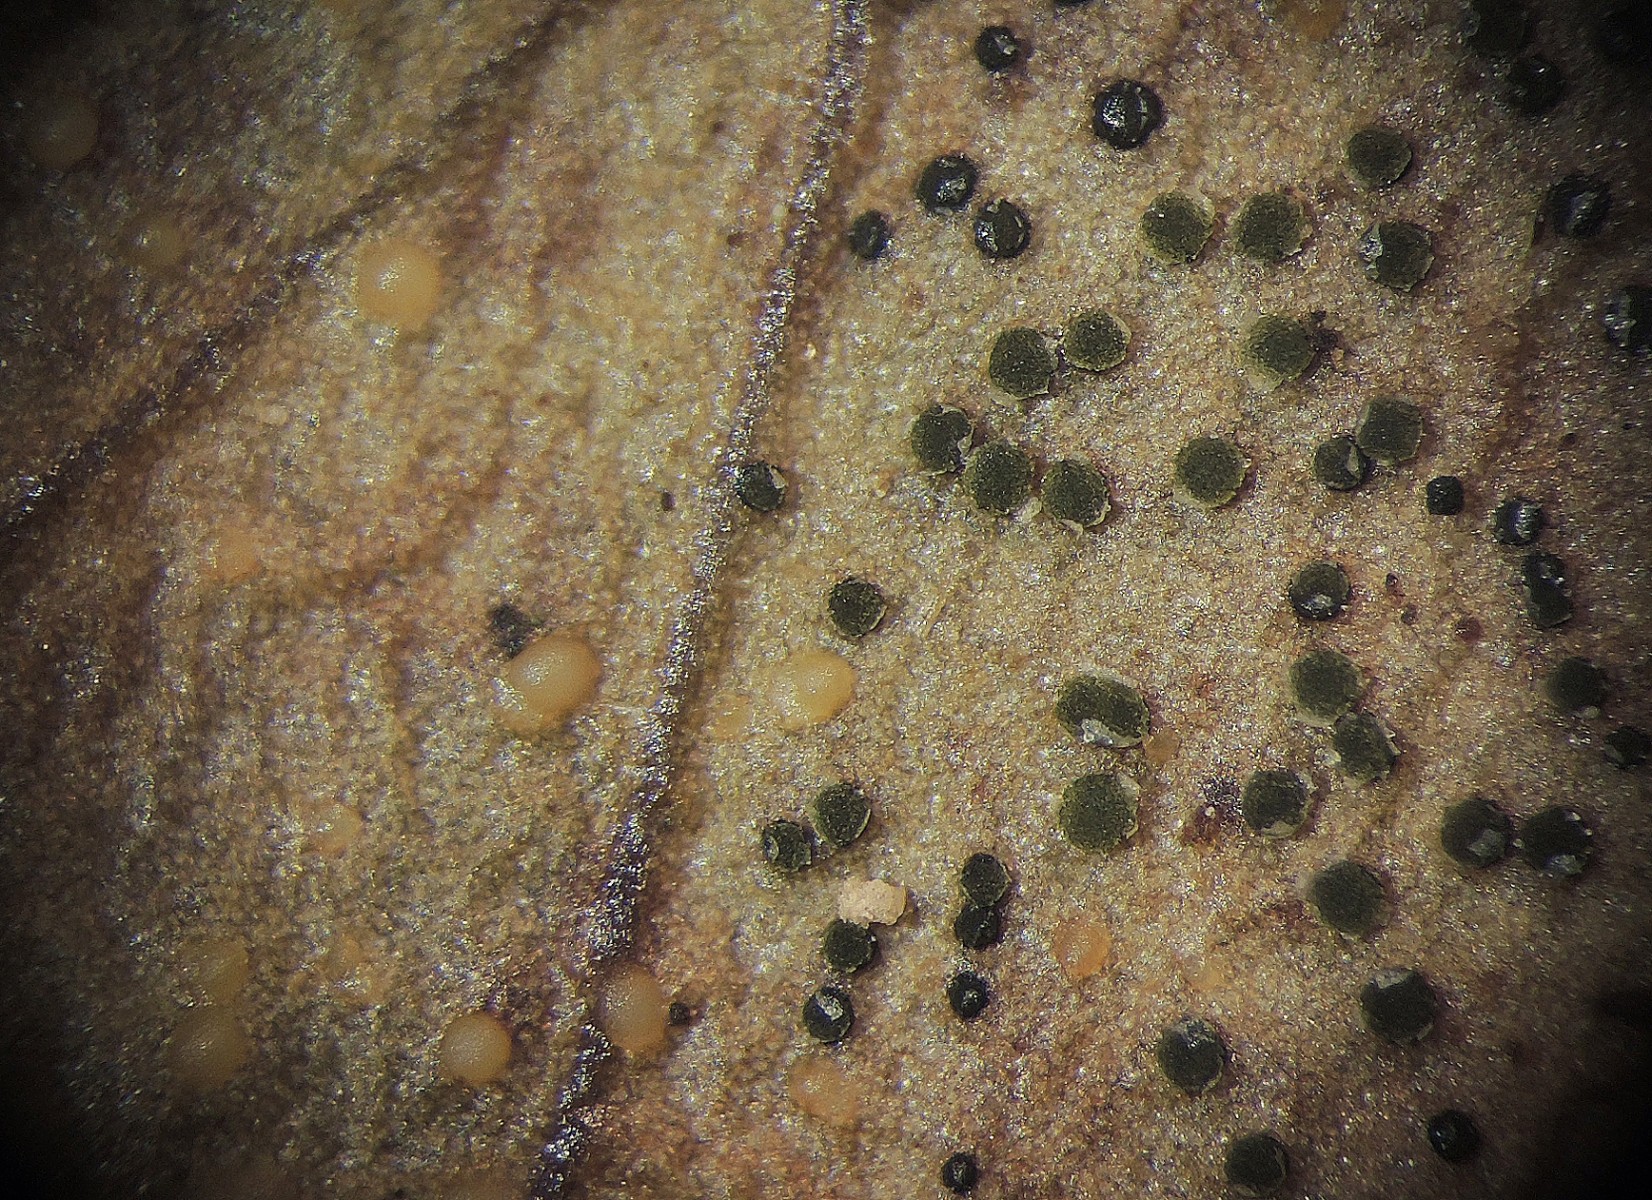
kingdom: Fungi
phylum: Ascomycota
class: Leotiomycetes
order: Helotiales
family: Cenangiaceae
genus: Trochila
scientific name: Trochila craterium
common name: vedbend-lågskive
